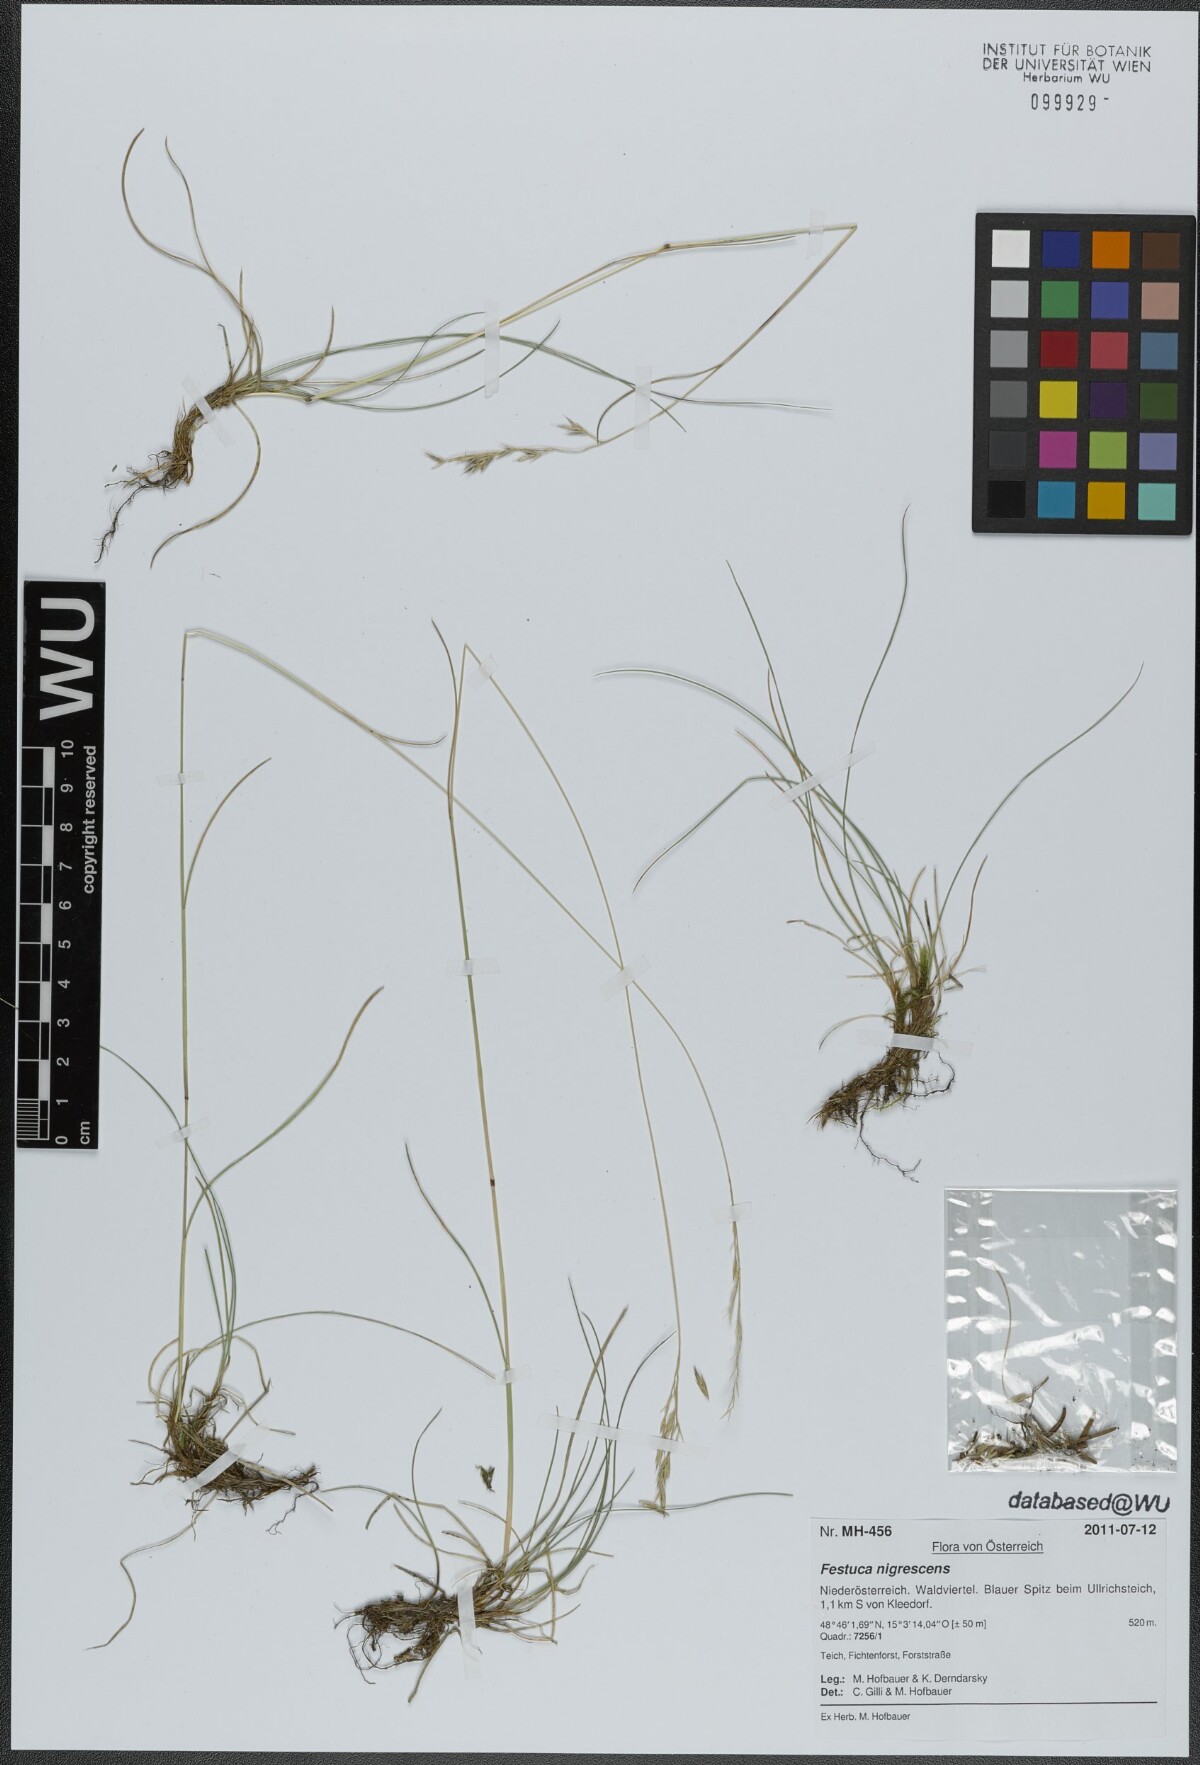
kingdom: Plantae
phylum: Tracheophyta
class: Liliopsida
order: Poales
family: Poaceae
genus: Festuca
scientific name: Festuca nigrescens
